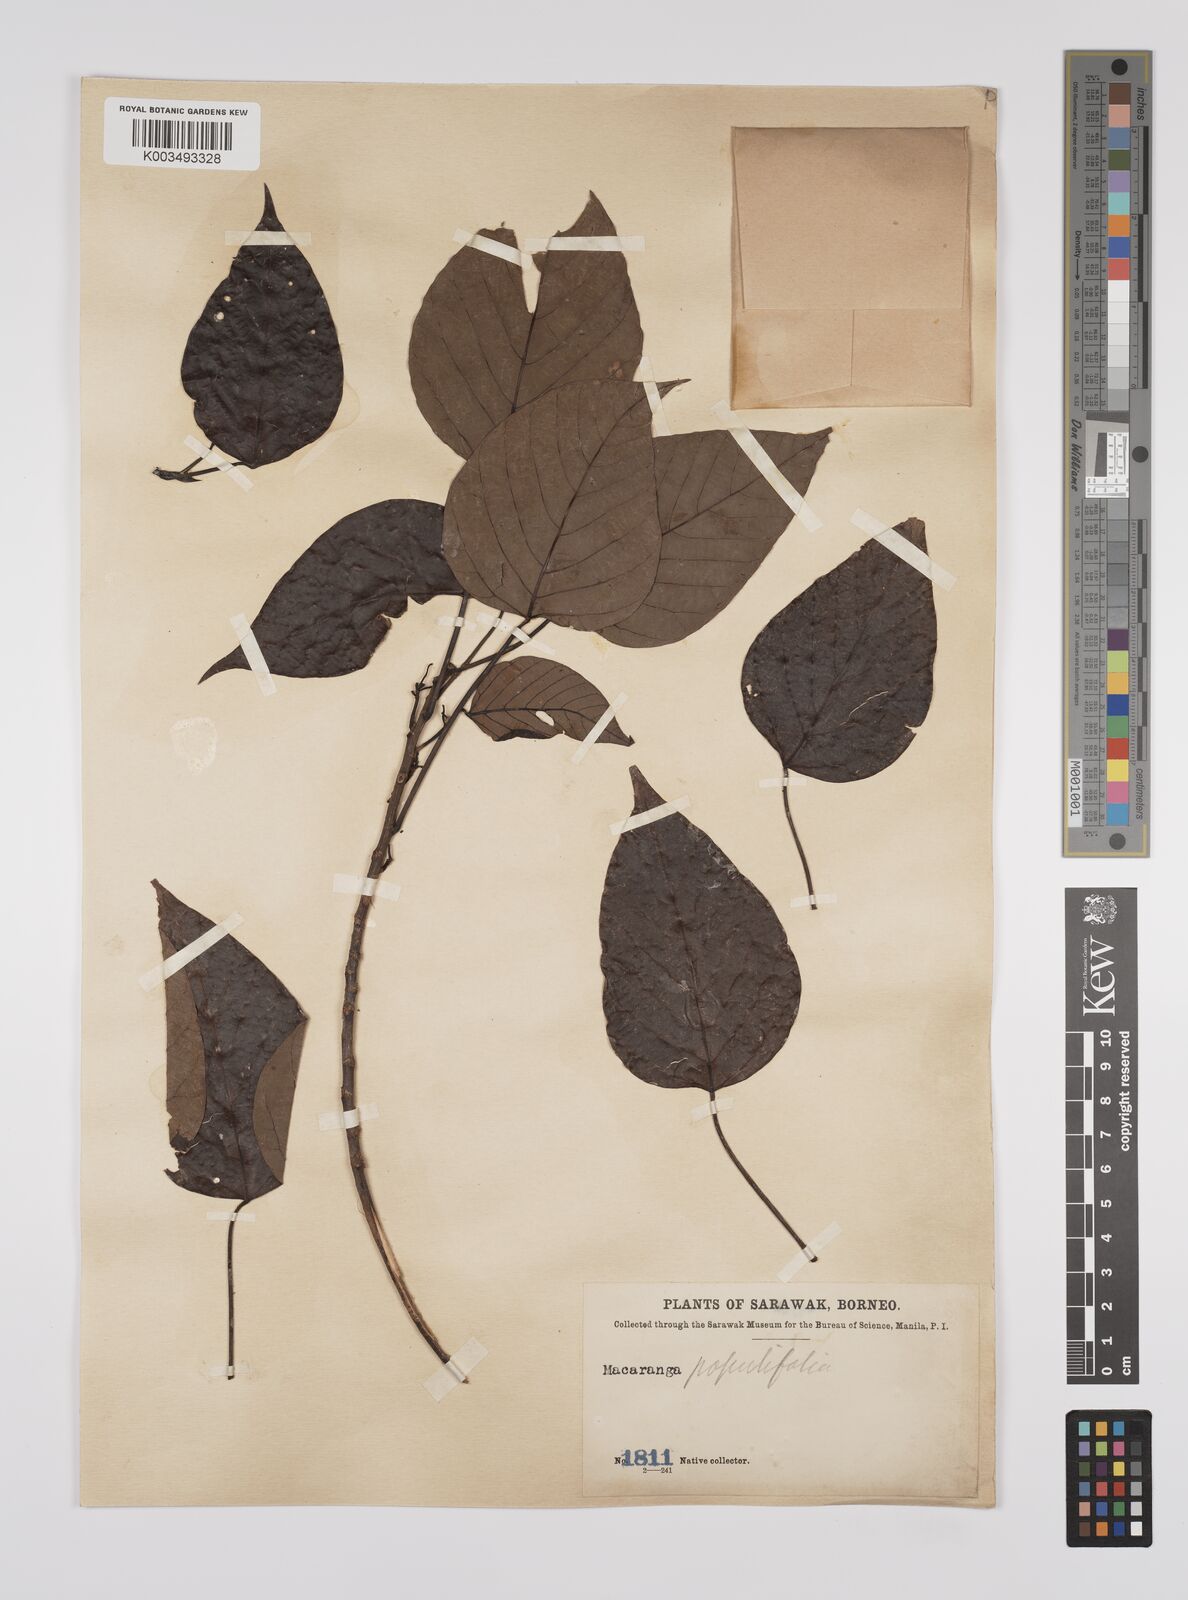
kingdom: Plantae
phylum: Tracheophyta
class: Magnoliopsida
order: Malpighiales
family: Euphorbiaceae
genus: Macaranga
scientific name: Macaranga conifera
